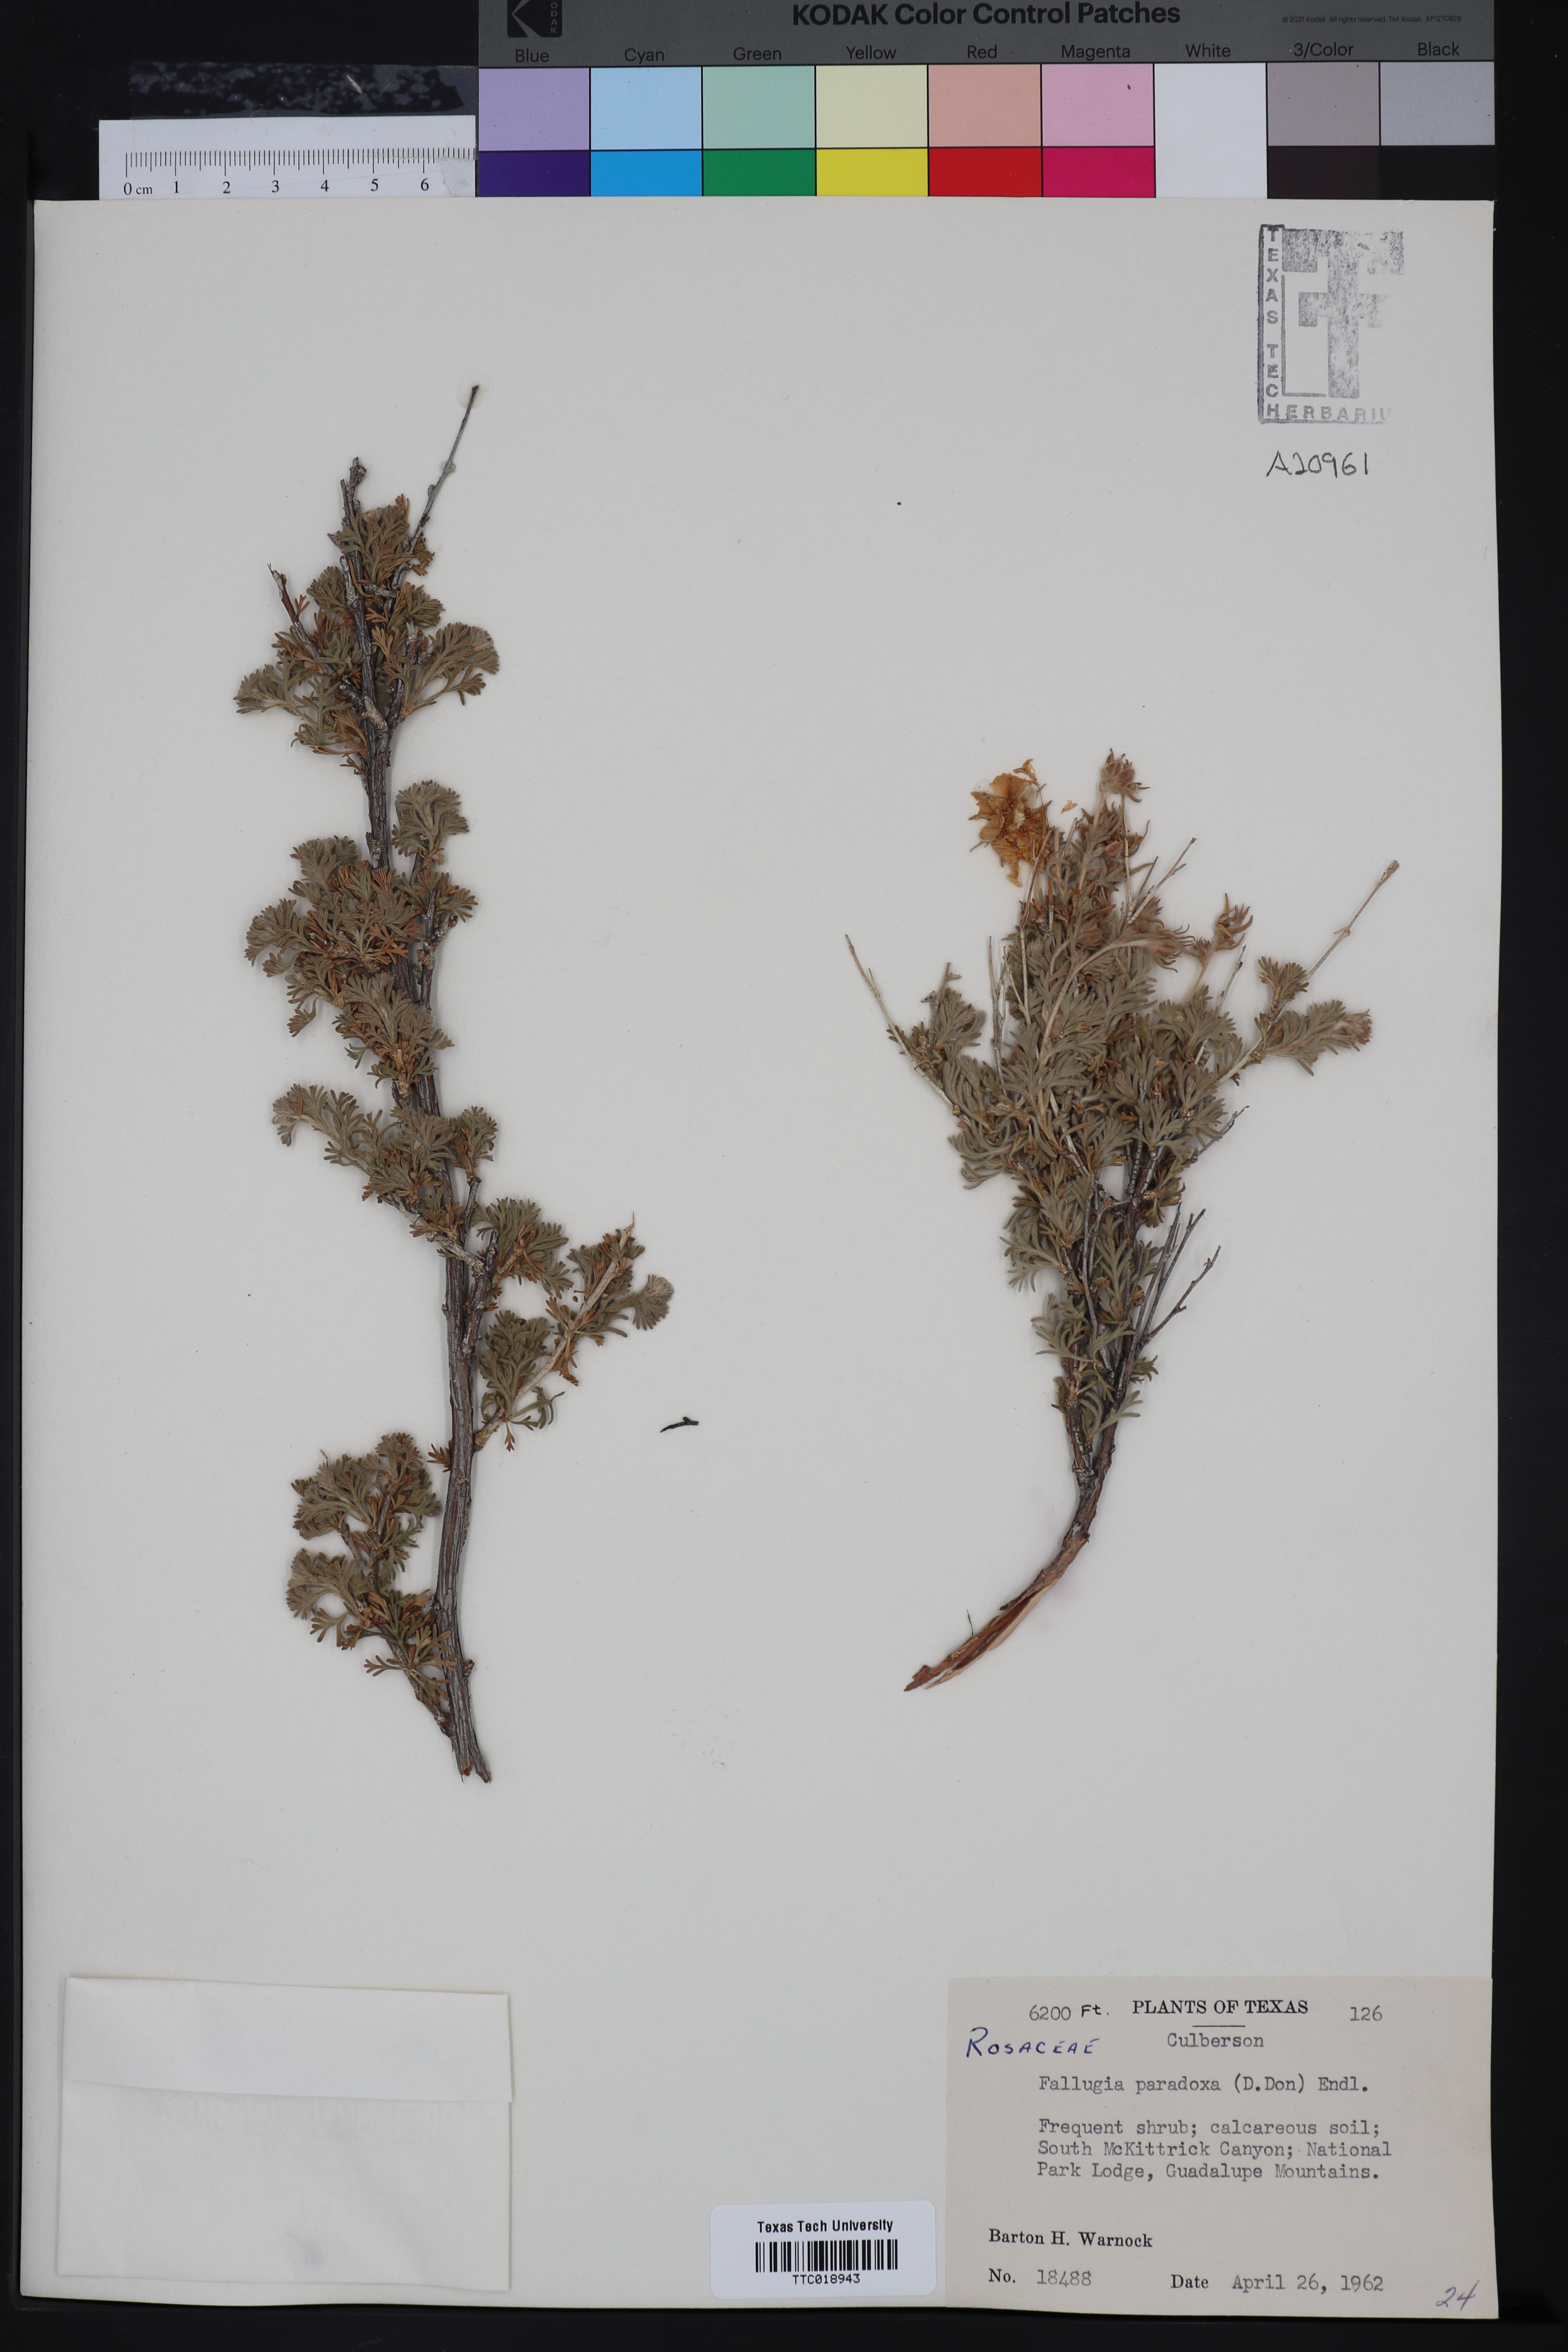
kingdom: Plantae
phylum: Tracheophyta
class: Magnoliopsida
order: Rosales
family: Rosaceae
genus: Fallugia
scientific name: Fallugia paradoxa
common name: Apache-plume
